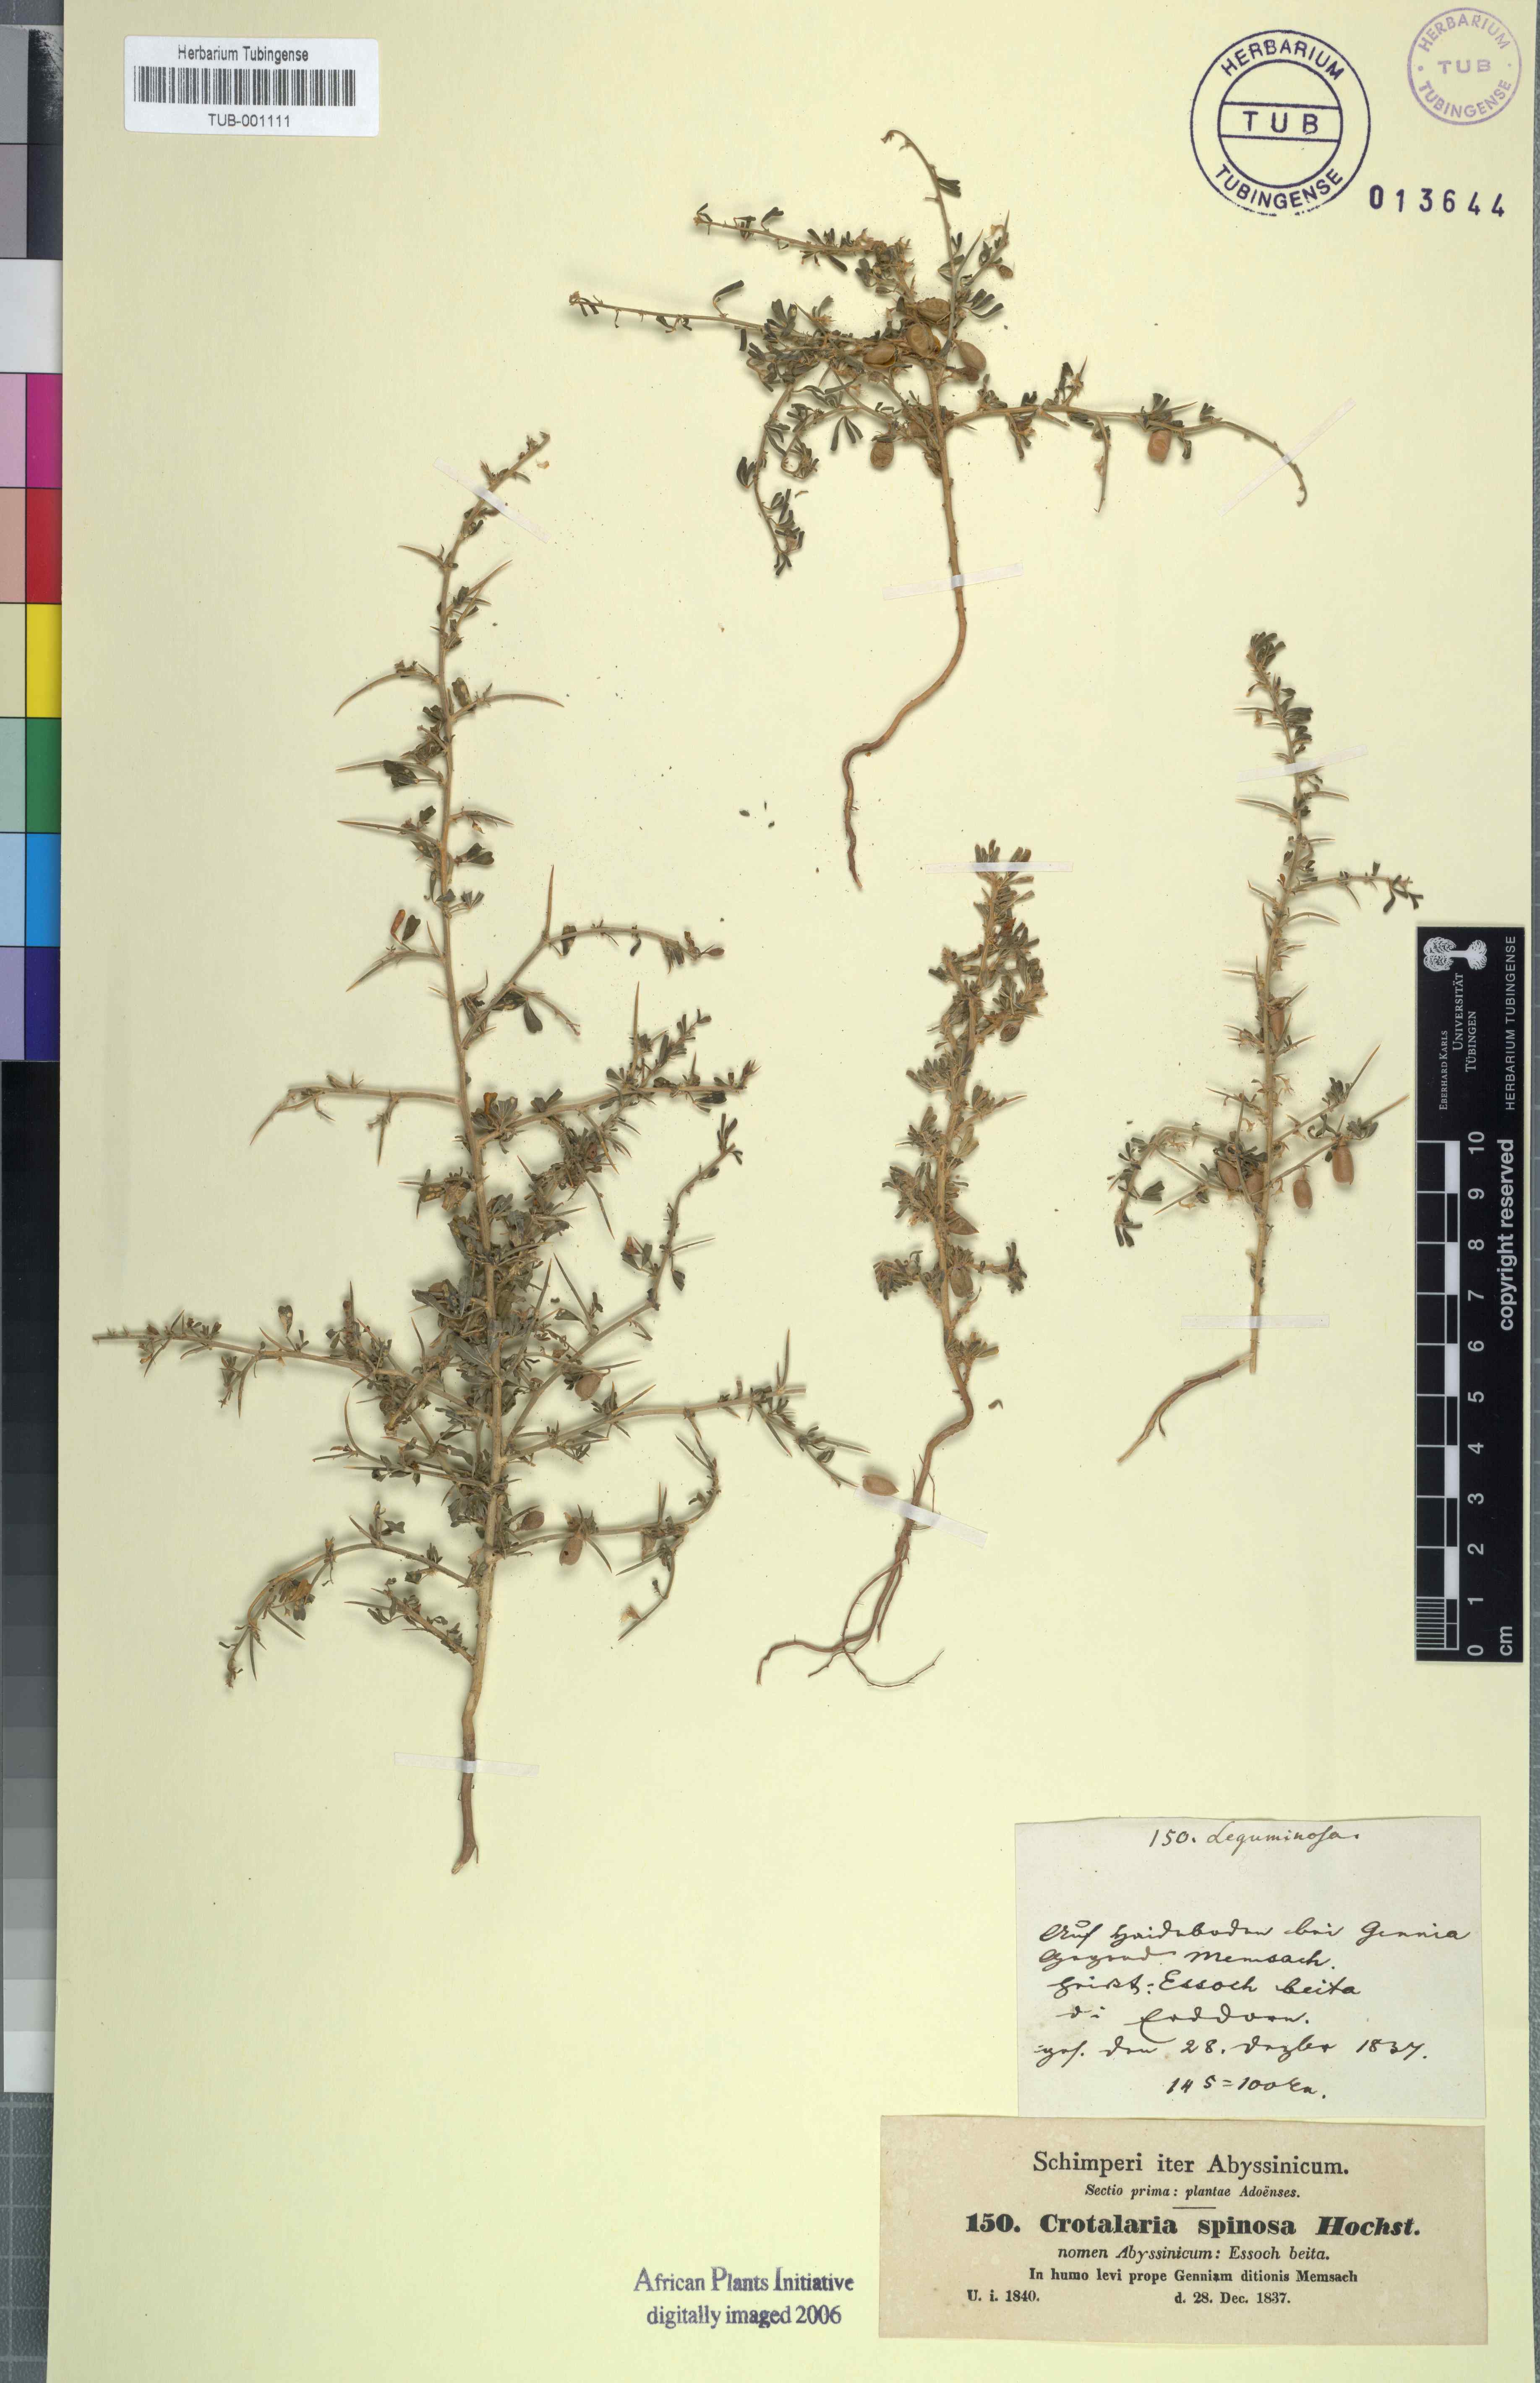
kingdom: Plantae
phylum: Tracheophyta
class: Magnoliopsida
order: Fabales
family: Fabaceae
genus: Crotalaria
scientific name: Crotalaria spinosa
